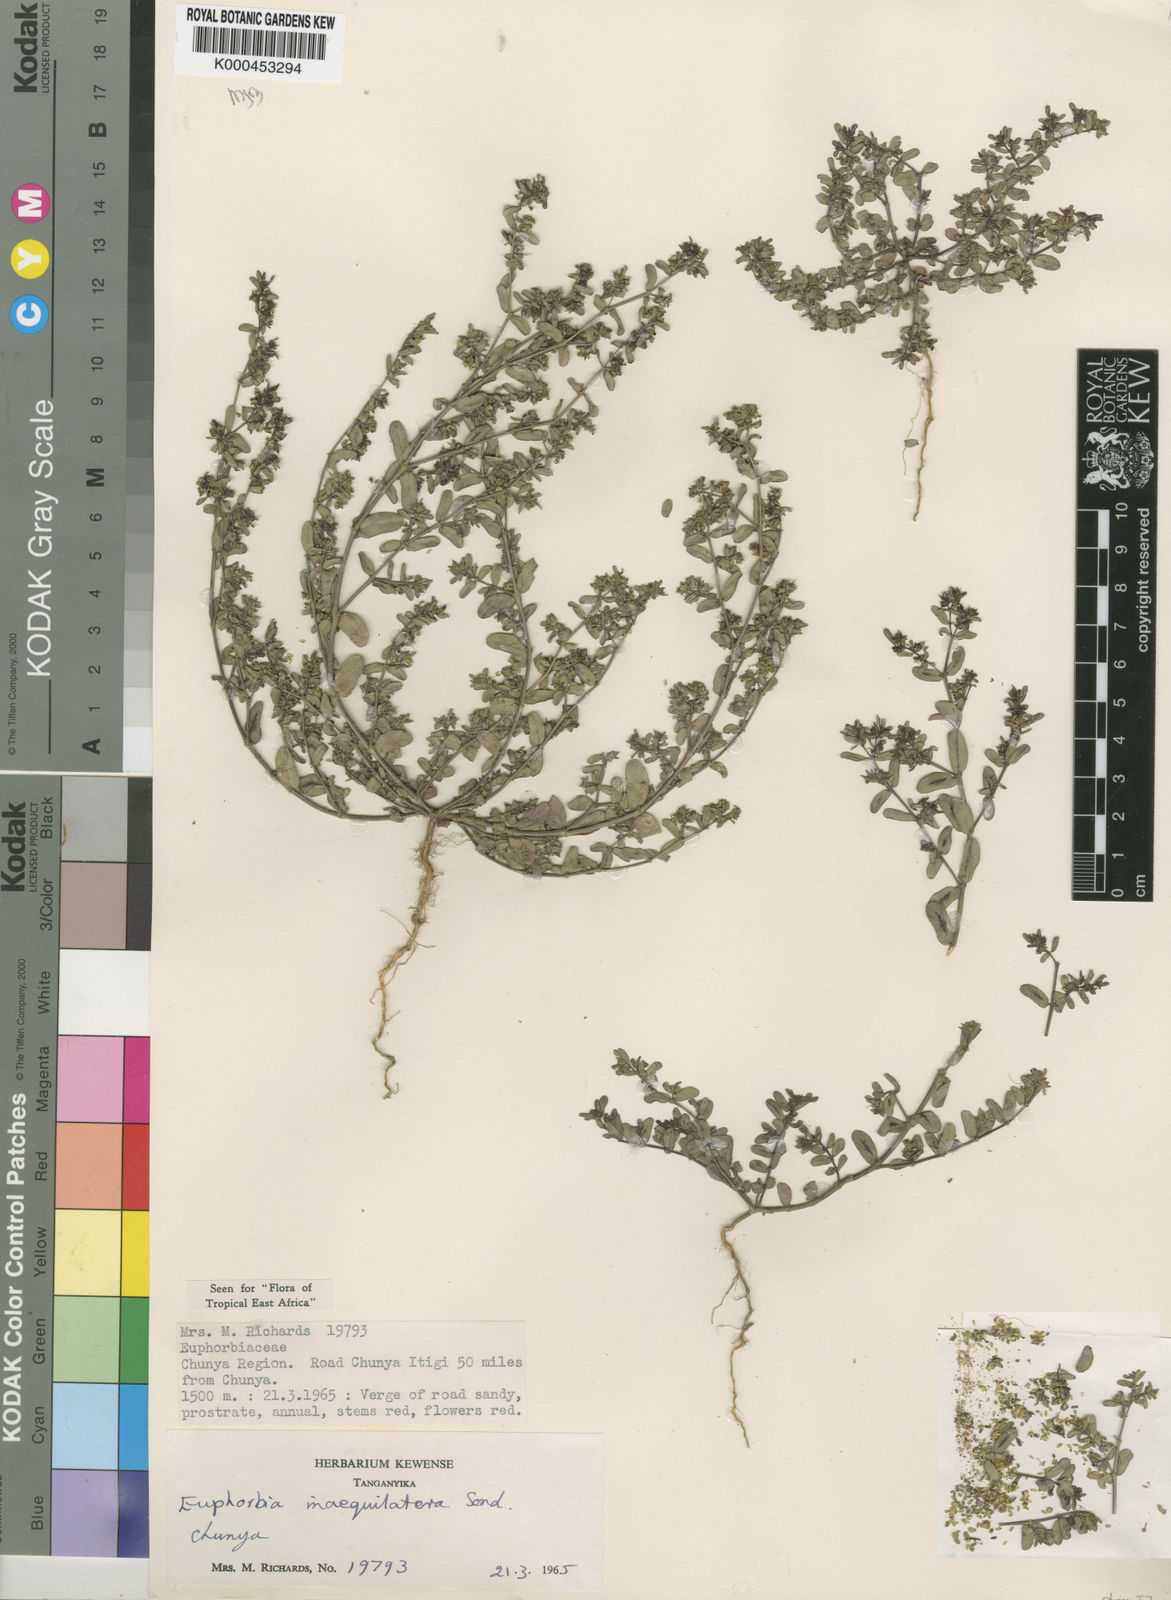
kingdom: Plantae
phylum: Tracheophyta
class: Magnoliopsida
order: Malpighiales
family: Euphorbiaceae
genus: Euphorbia
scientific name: Euphorbia inaequilatera
